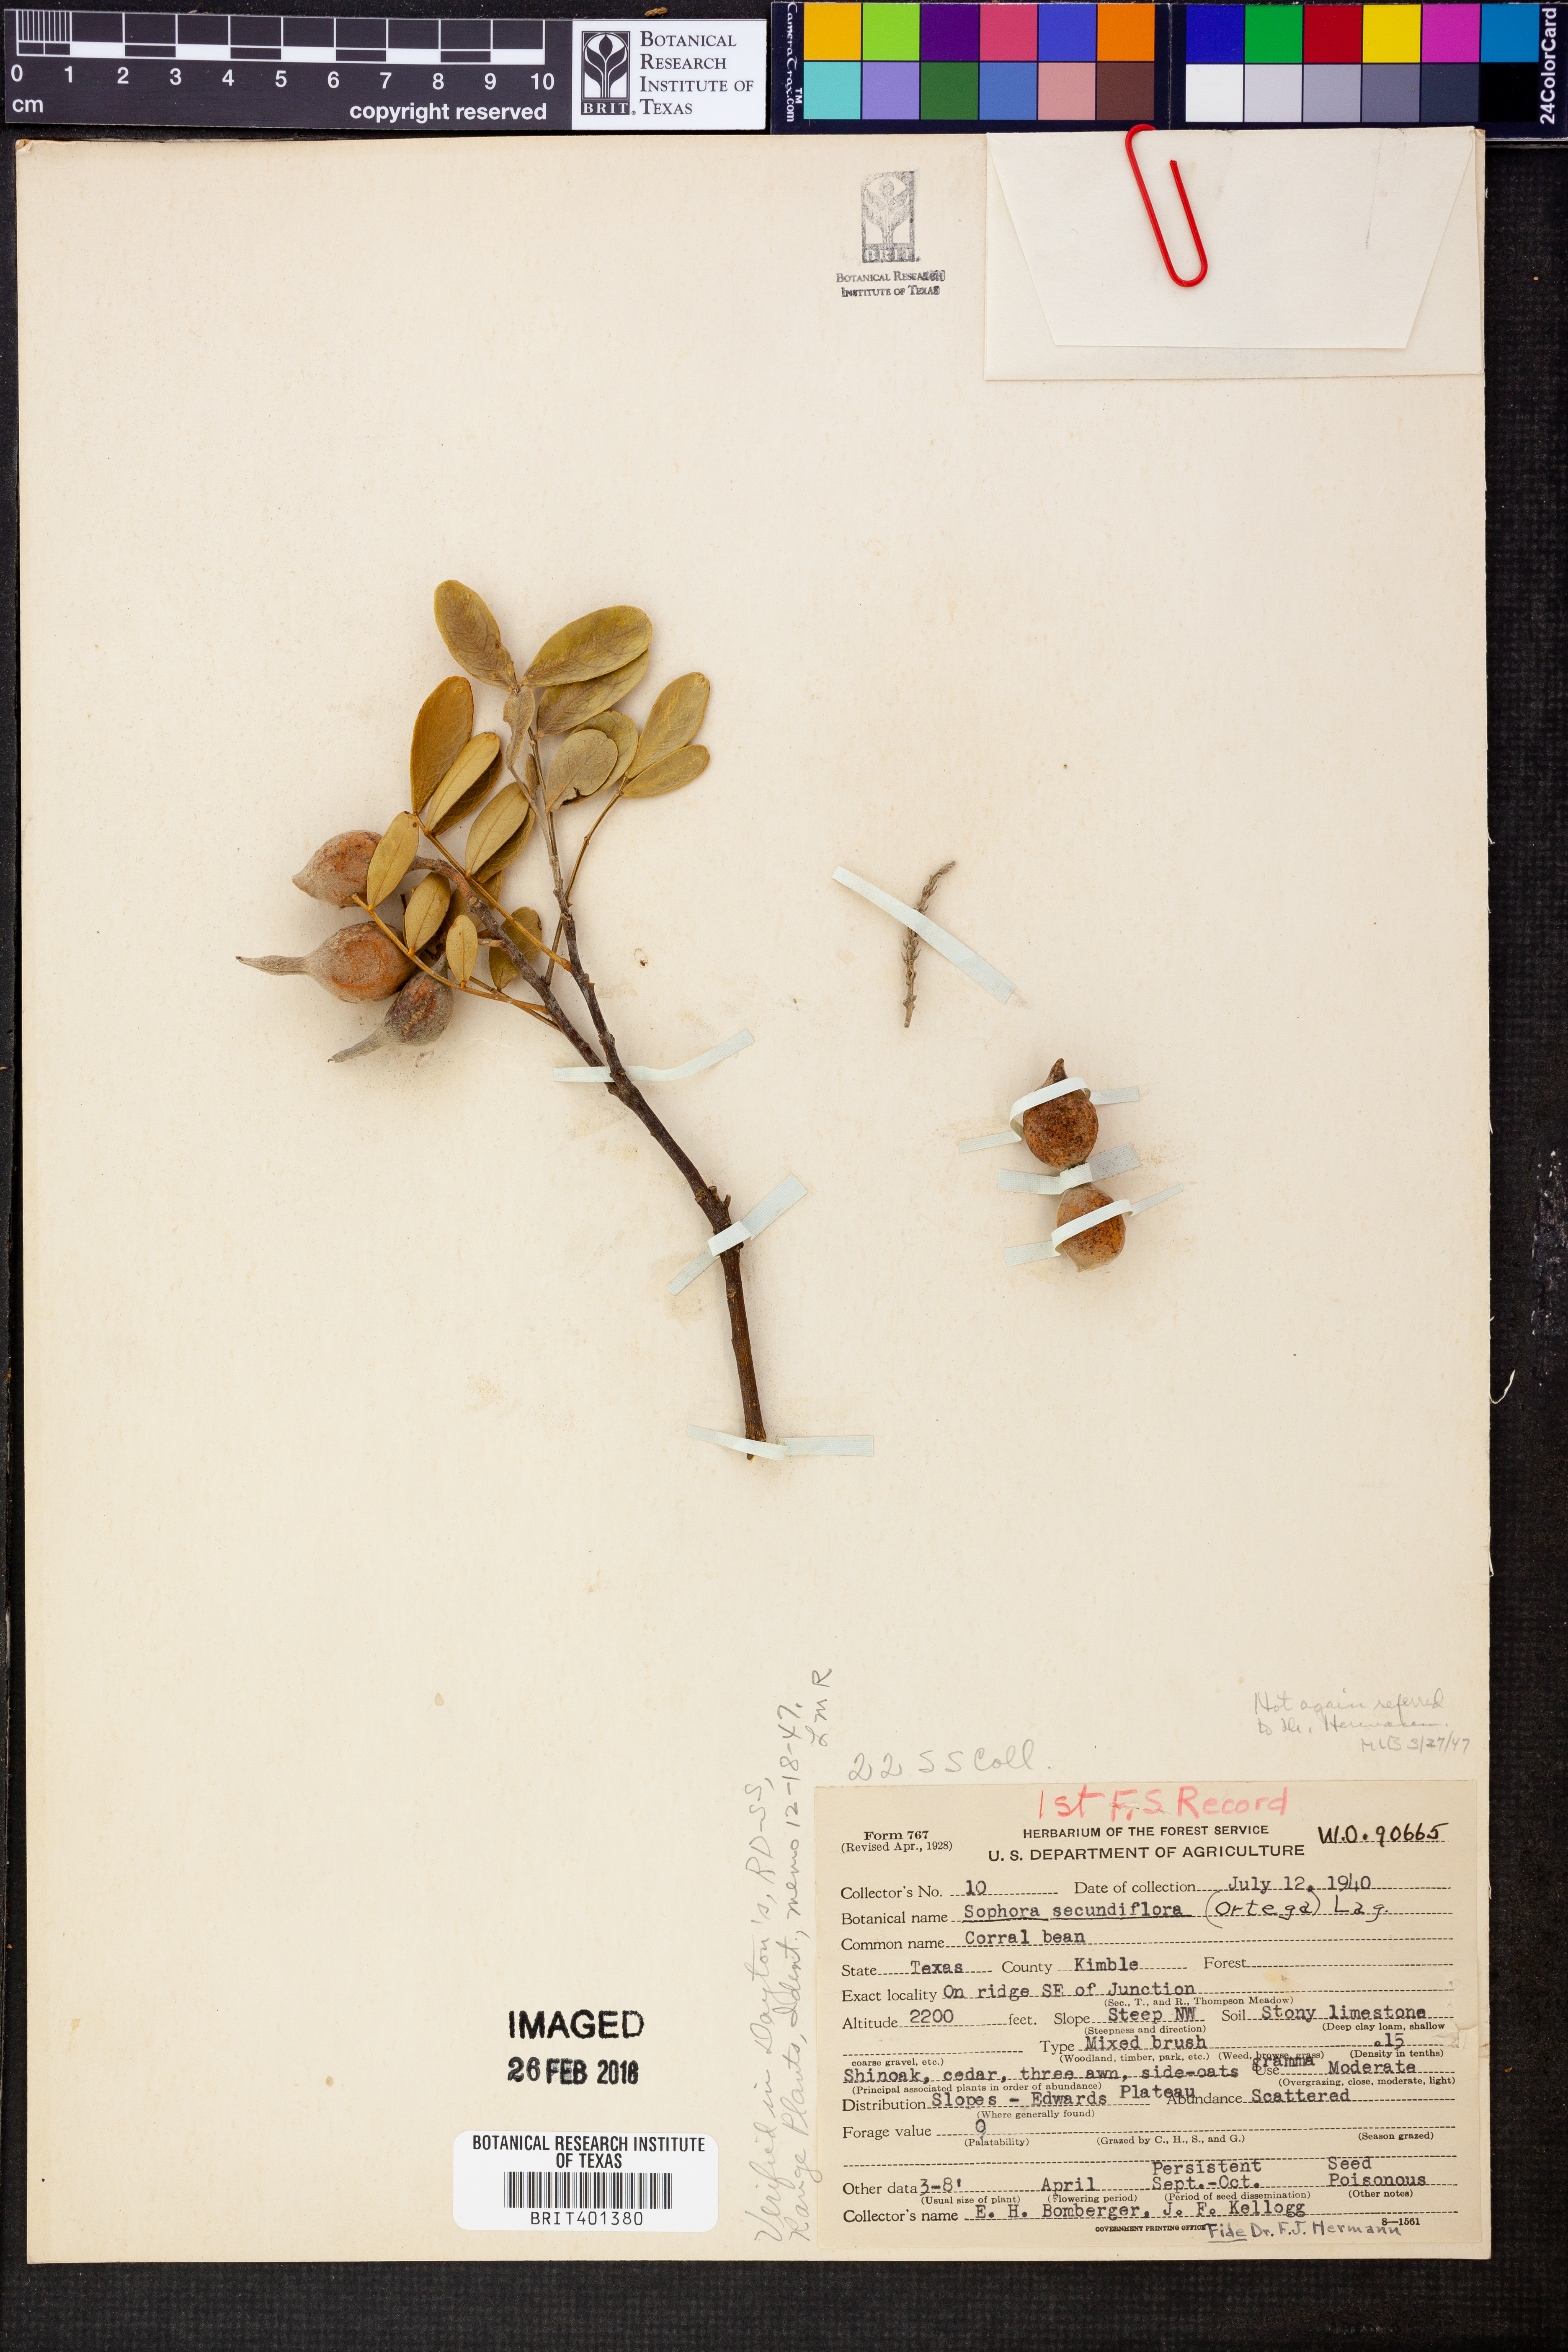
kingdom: Plantae
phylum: Tracheophyta
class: Magnoliopsida
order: Fabales
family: Fabaceae
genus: Dermatophyllum
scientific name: Dermatophyllum secundiflorum
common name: Texas-mountain-laurel
